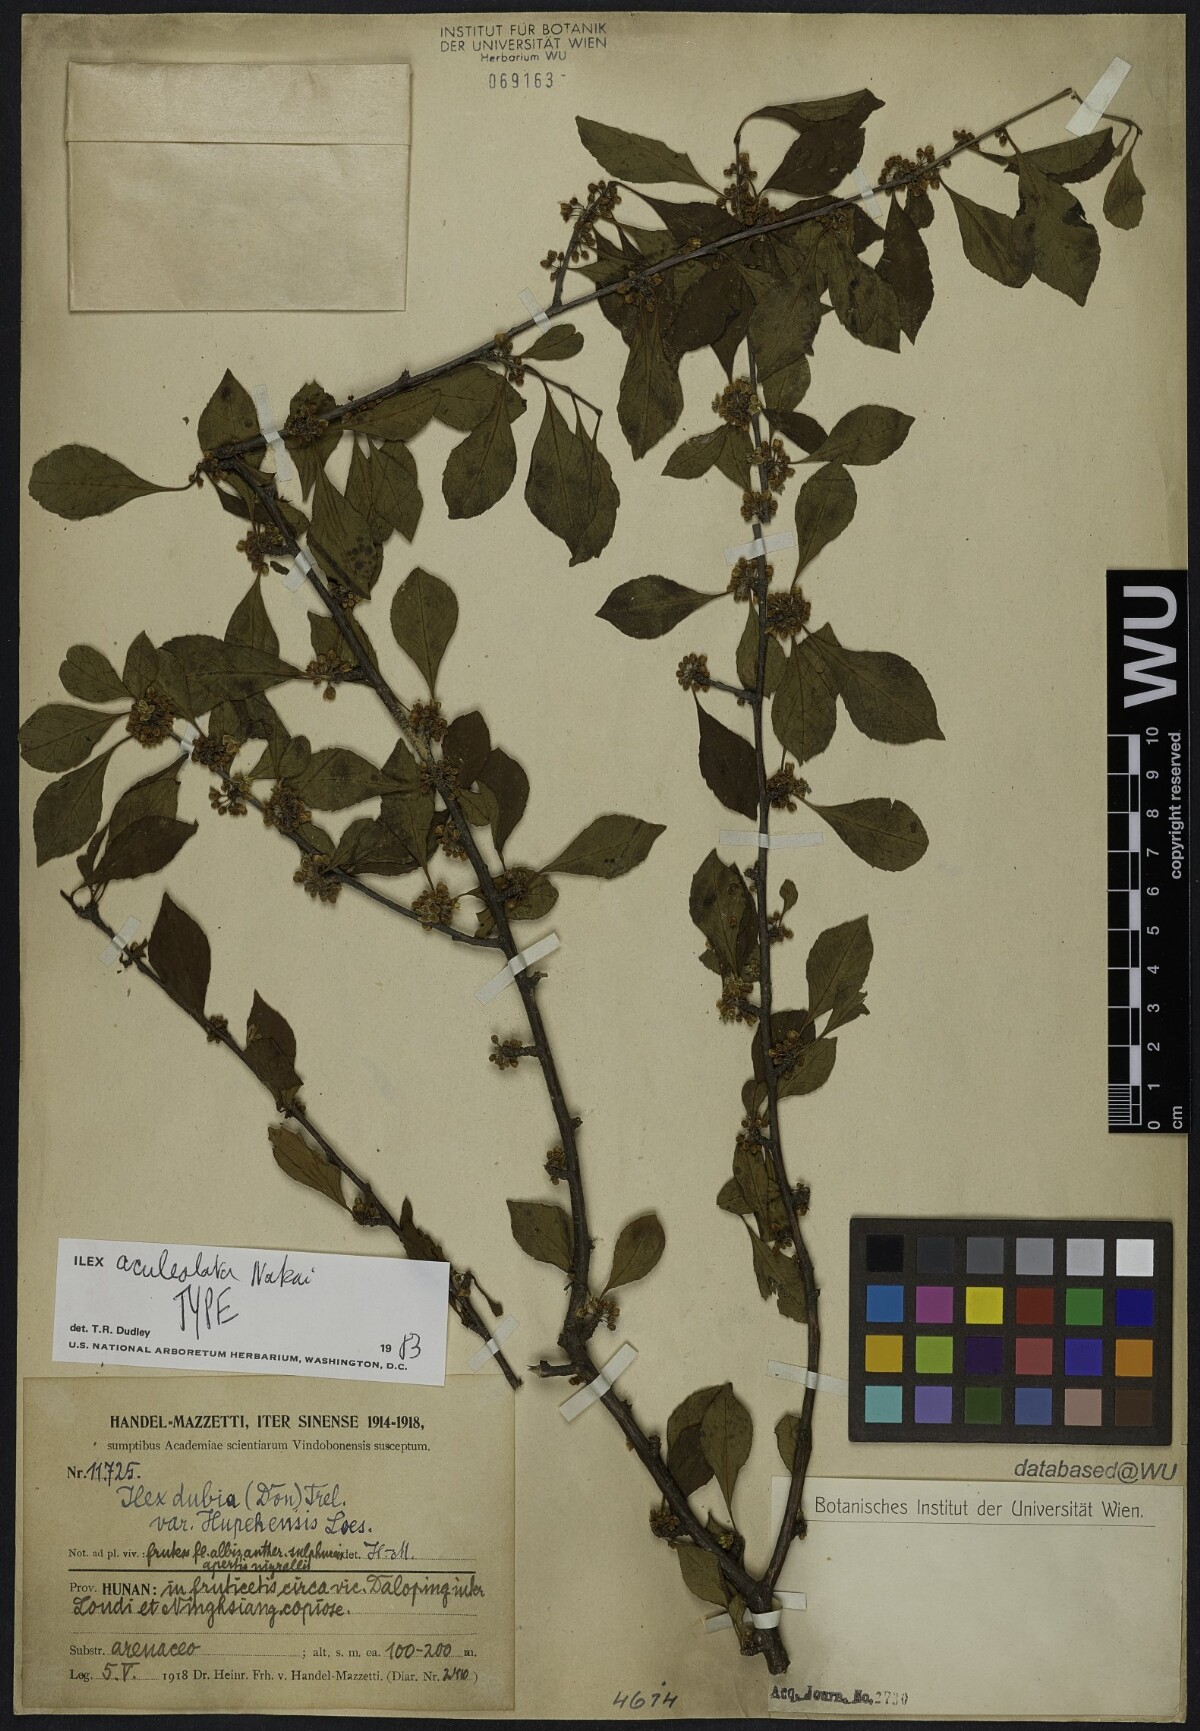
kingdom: Plantae
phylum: Tracheophyta
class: Magnoliopsida
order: Aquifoliales
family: Aquifoliaceae
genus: Ilex
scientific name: Ilex aculeolata
